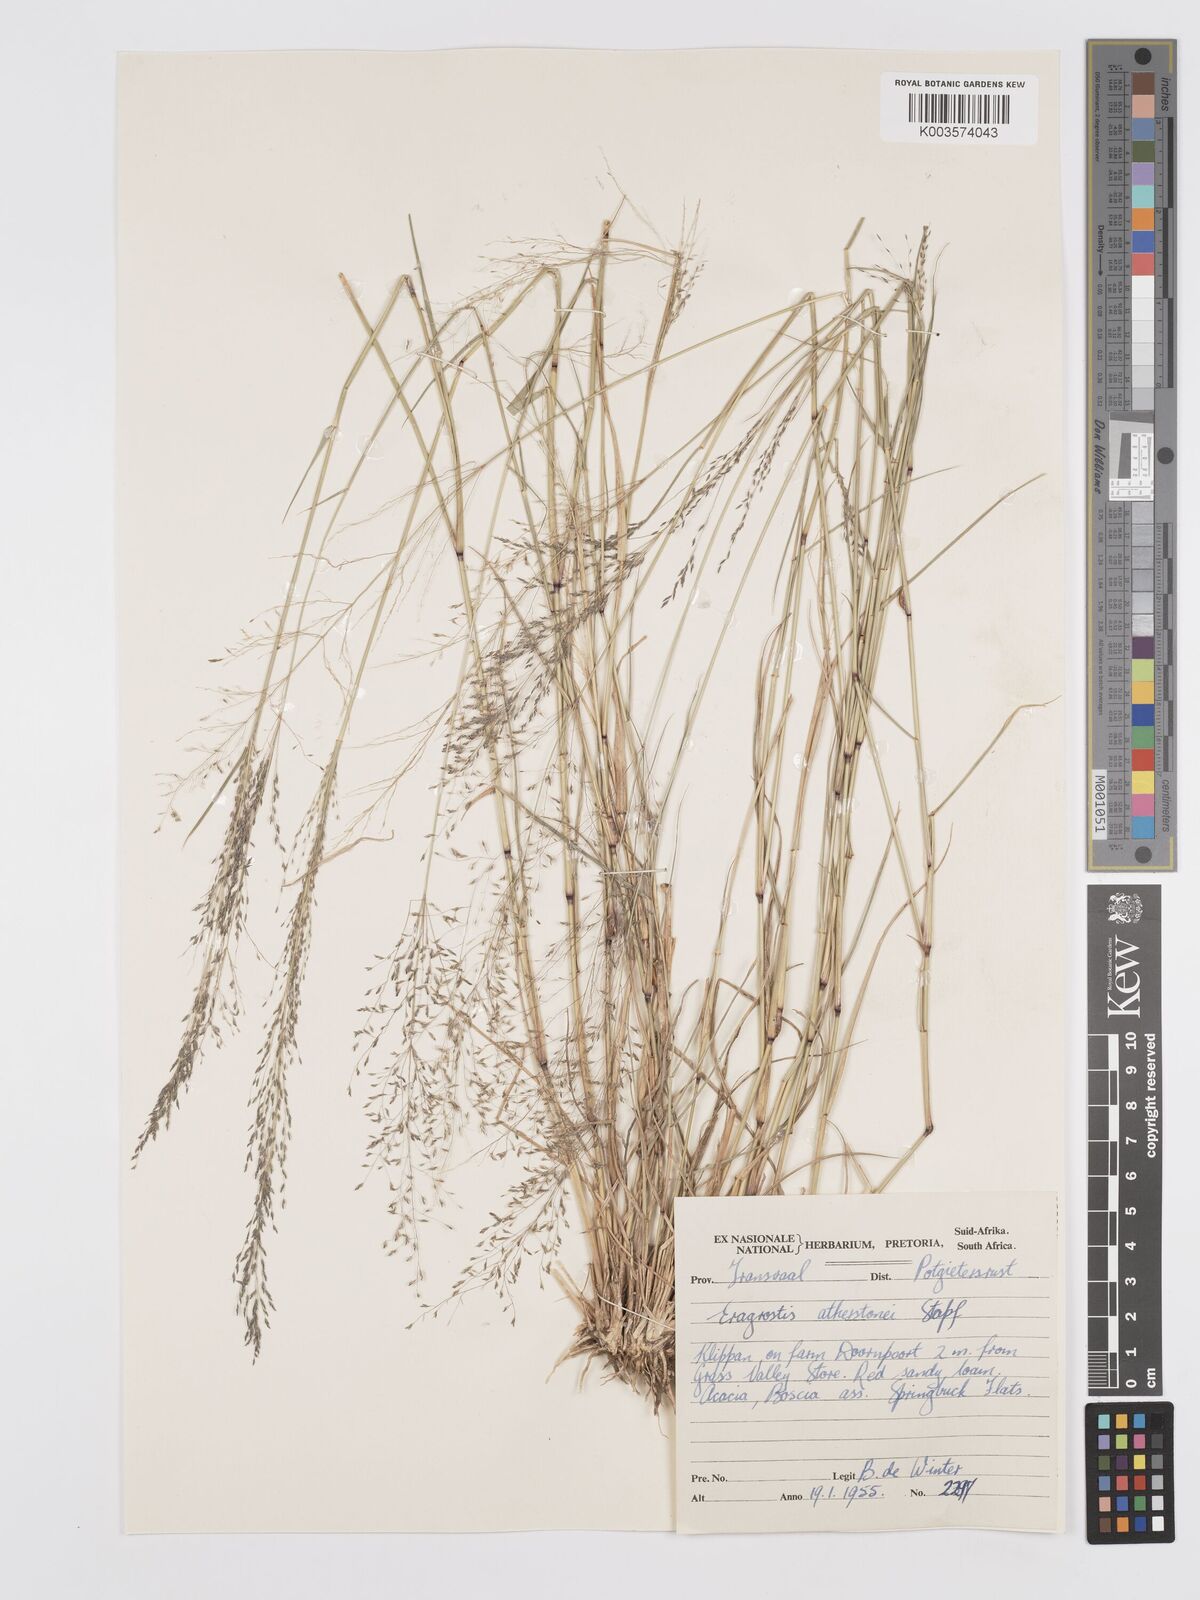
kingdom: Plantae
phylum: Tracheophyta
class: Liliopsida
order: Poales
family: Poaceae
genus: Eragrostis
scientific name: Eragrostis cylindriflora
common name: Cylinderflower lovegrass
